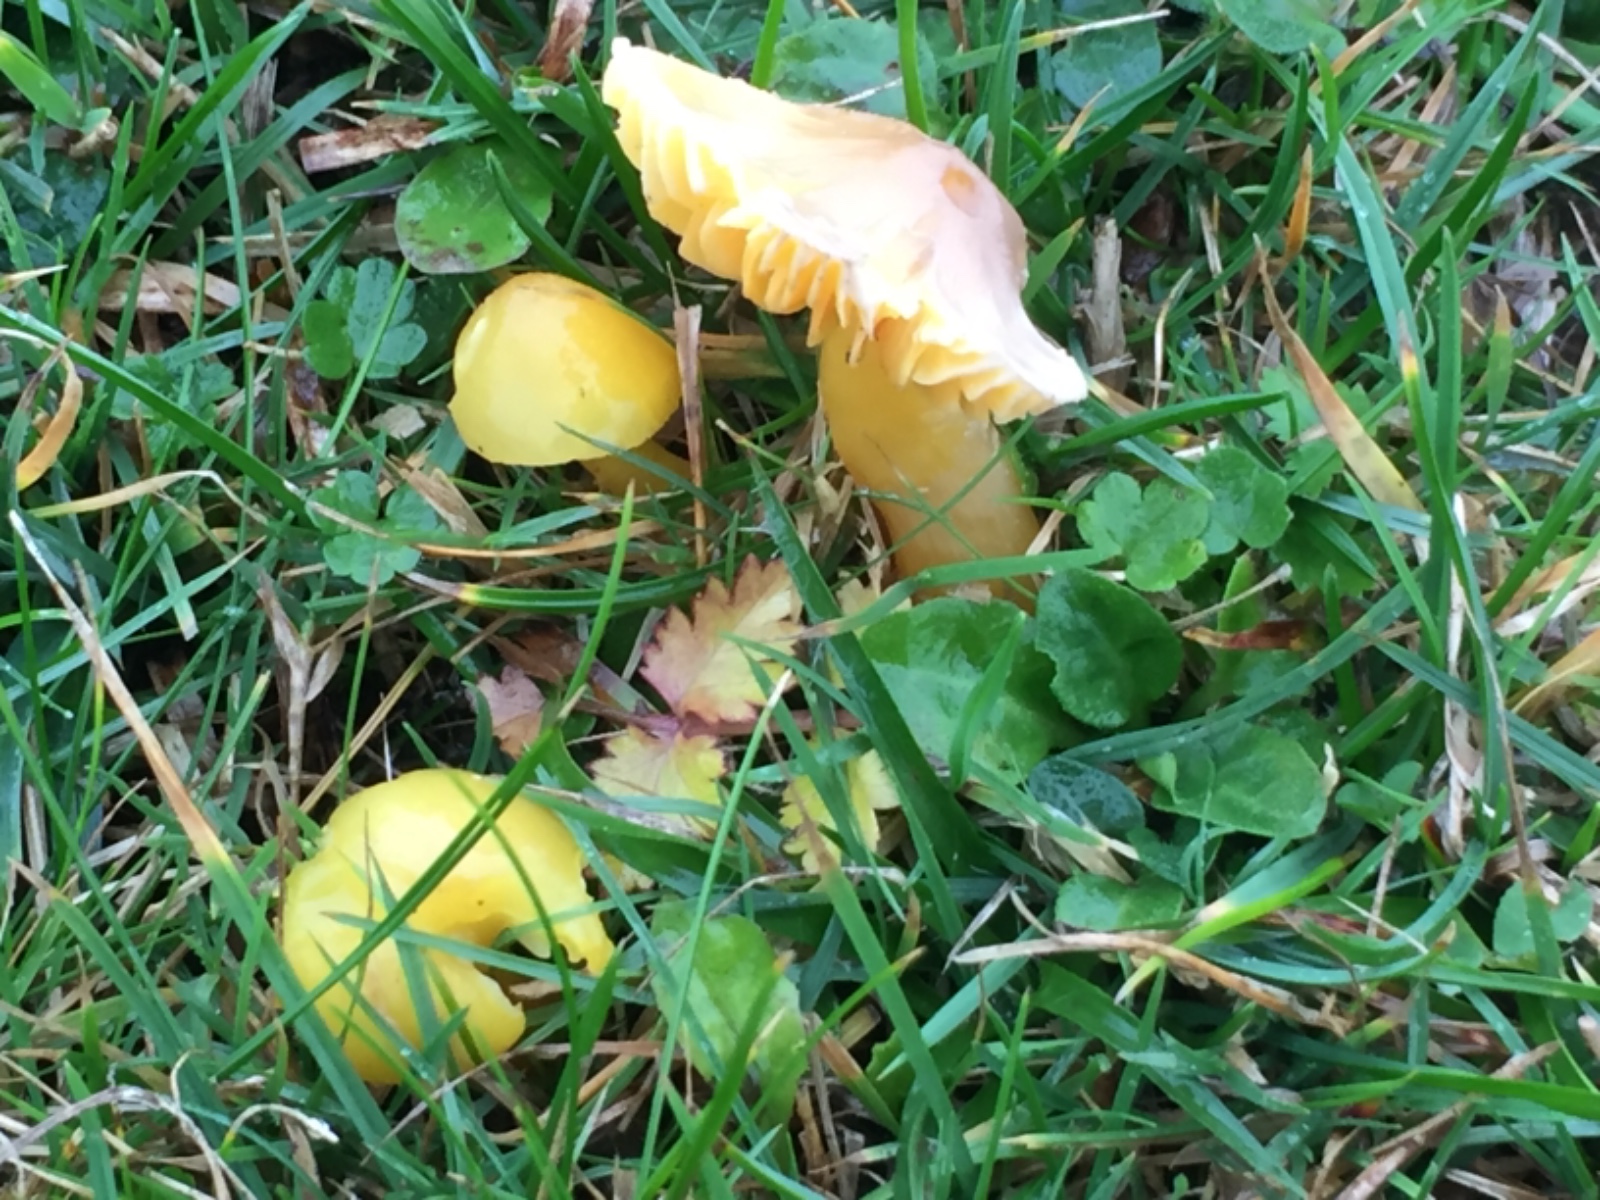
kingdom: Fungi
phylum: Basidiomycota
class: Agaricomycetes
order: Agaricales
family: Hygrophoraceae
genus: Hygrocybe
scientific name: Hygrocybe quieta
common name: tæge-vokshat
